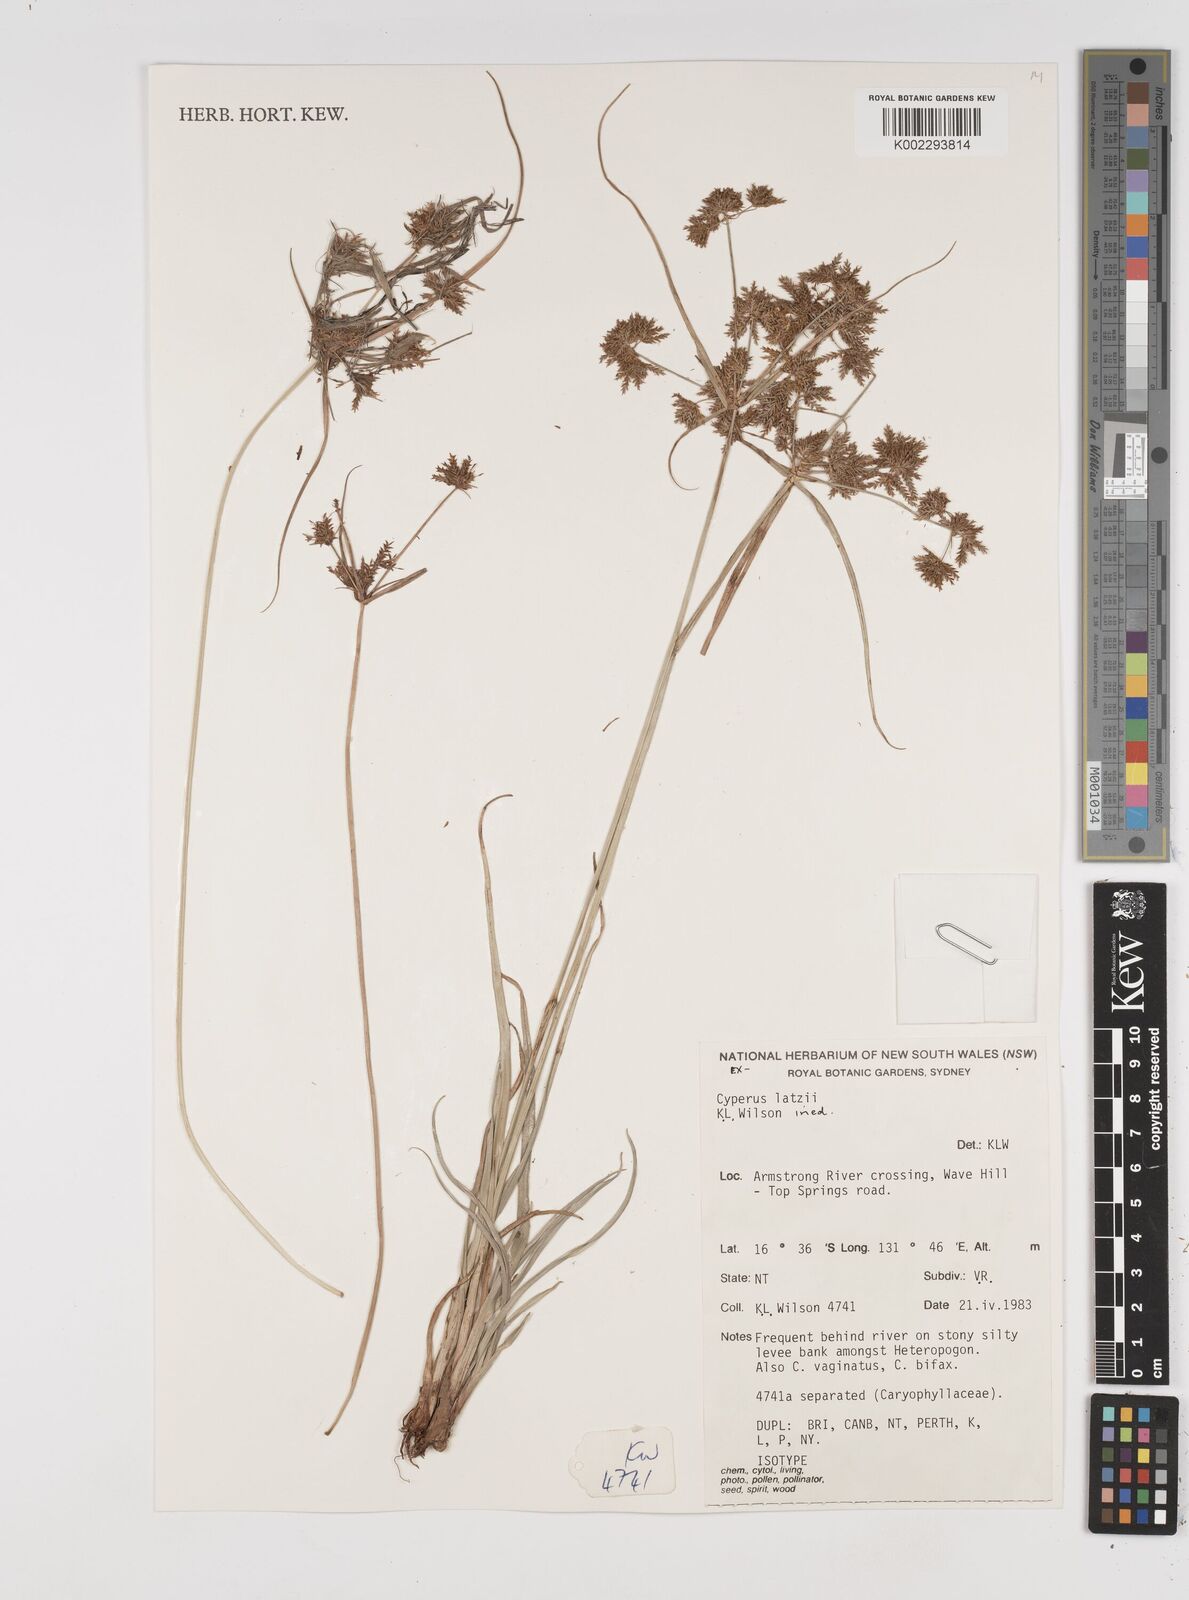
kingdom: Plantae
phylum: Tracheophyta
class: Liliopsida
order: Poales
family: Cyperaceae
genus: Cyperus
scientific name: Cyperus latzii
